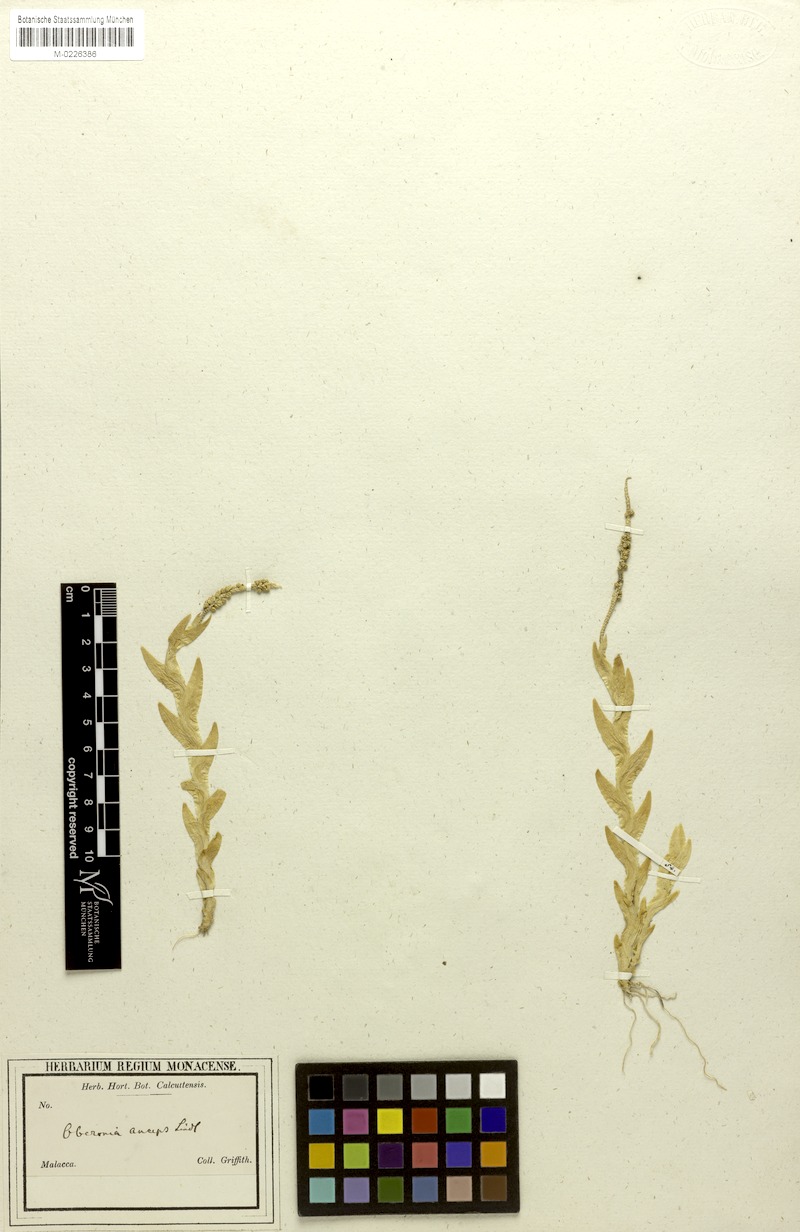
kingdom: Plantae
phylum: Tracheophyta
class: Liliopsida
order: Asparagales
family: Orchidaceae
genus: Oberonia
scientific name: Oberonia lycopodioides
